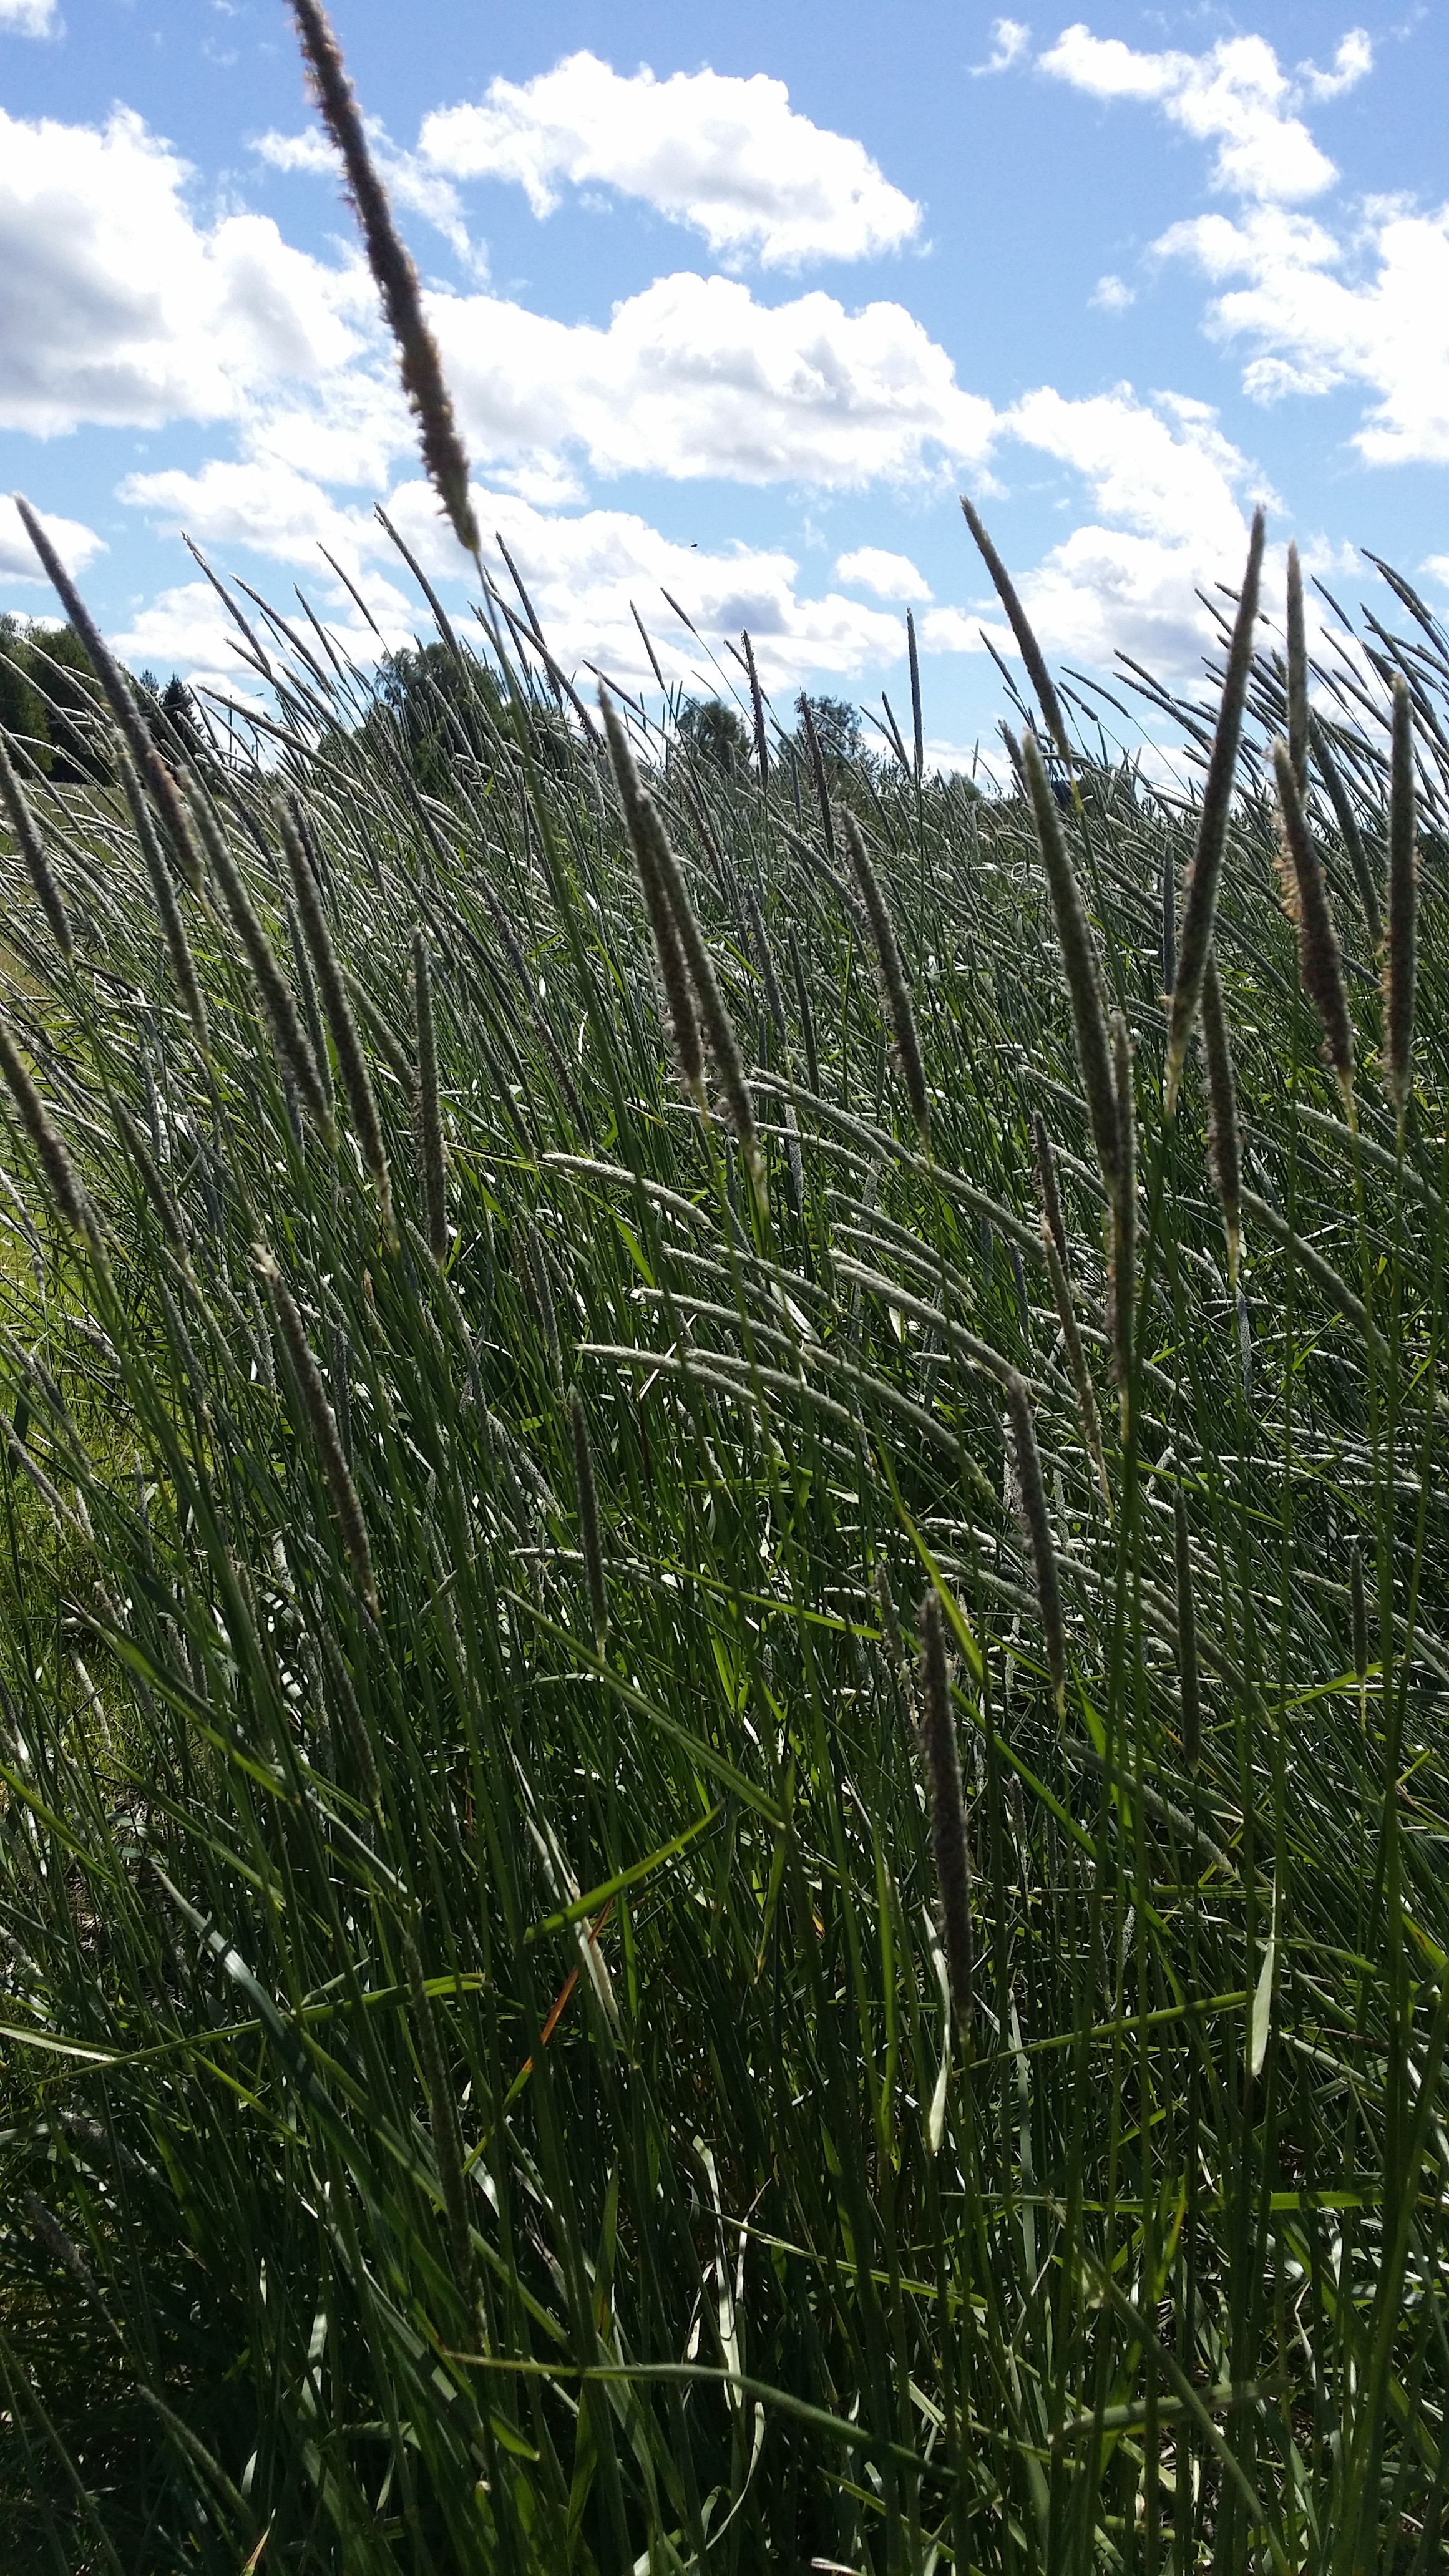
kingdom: Plantae
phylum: Tracheophyta
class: Liliopsida
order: Poales
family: Poaceae
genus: Alopecurus
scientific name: Alopecurus pratensis
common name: Meadow foxtail
